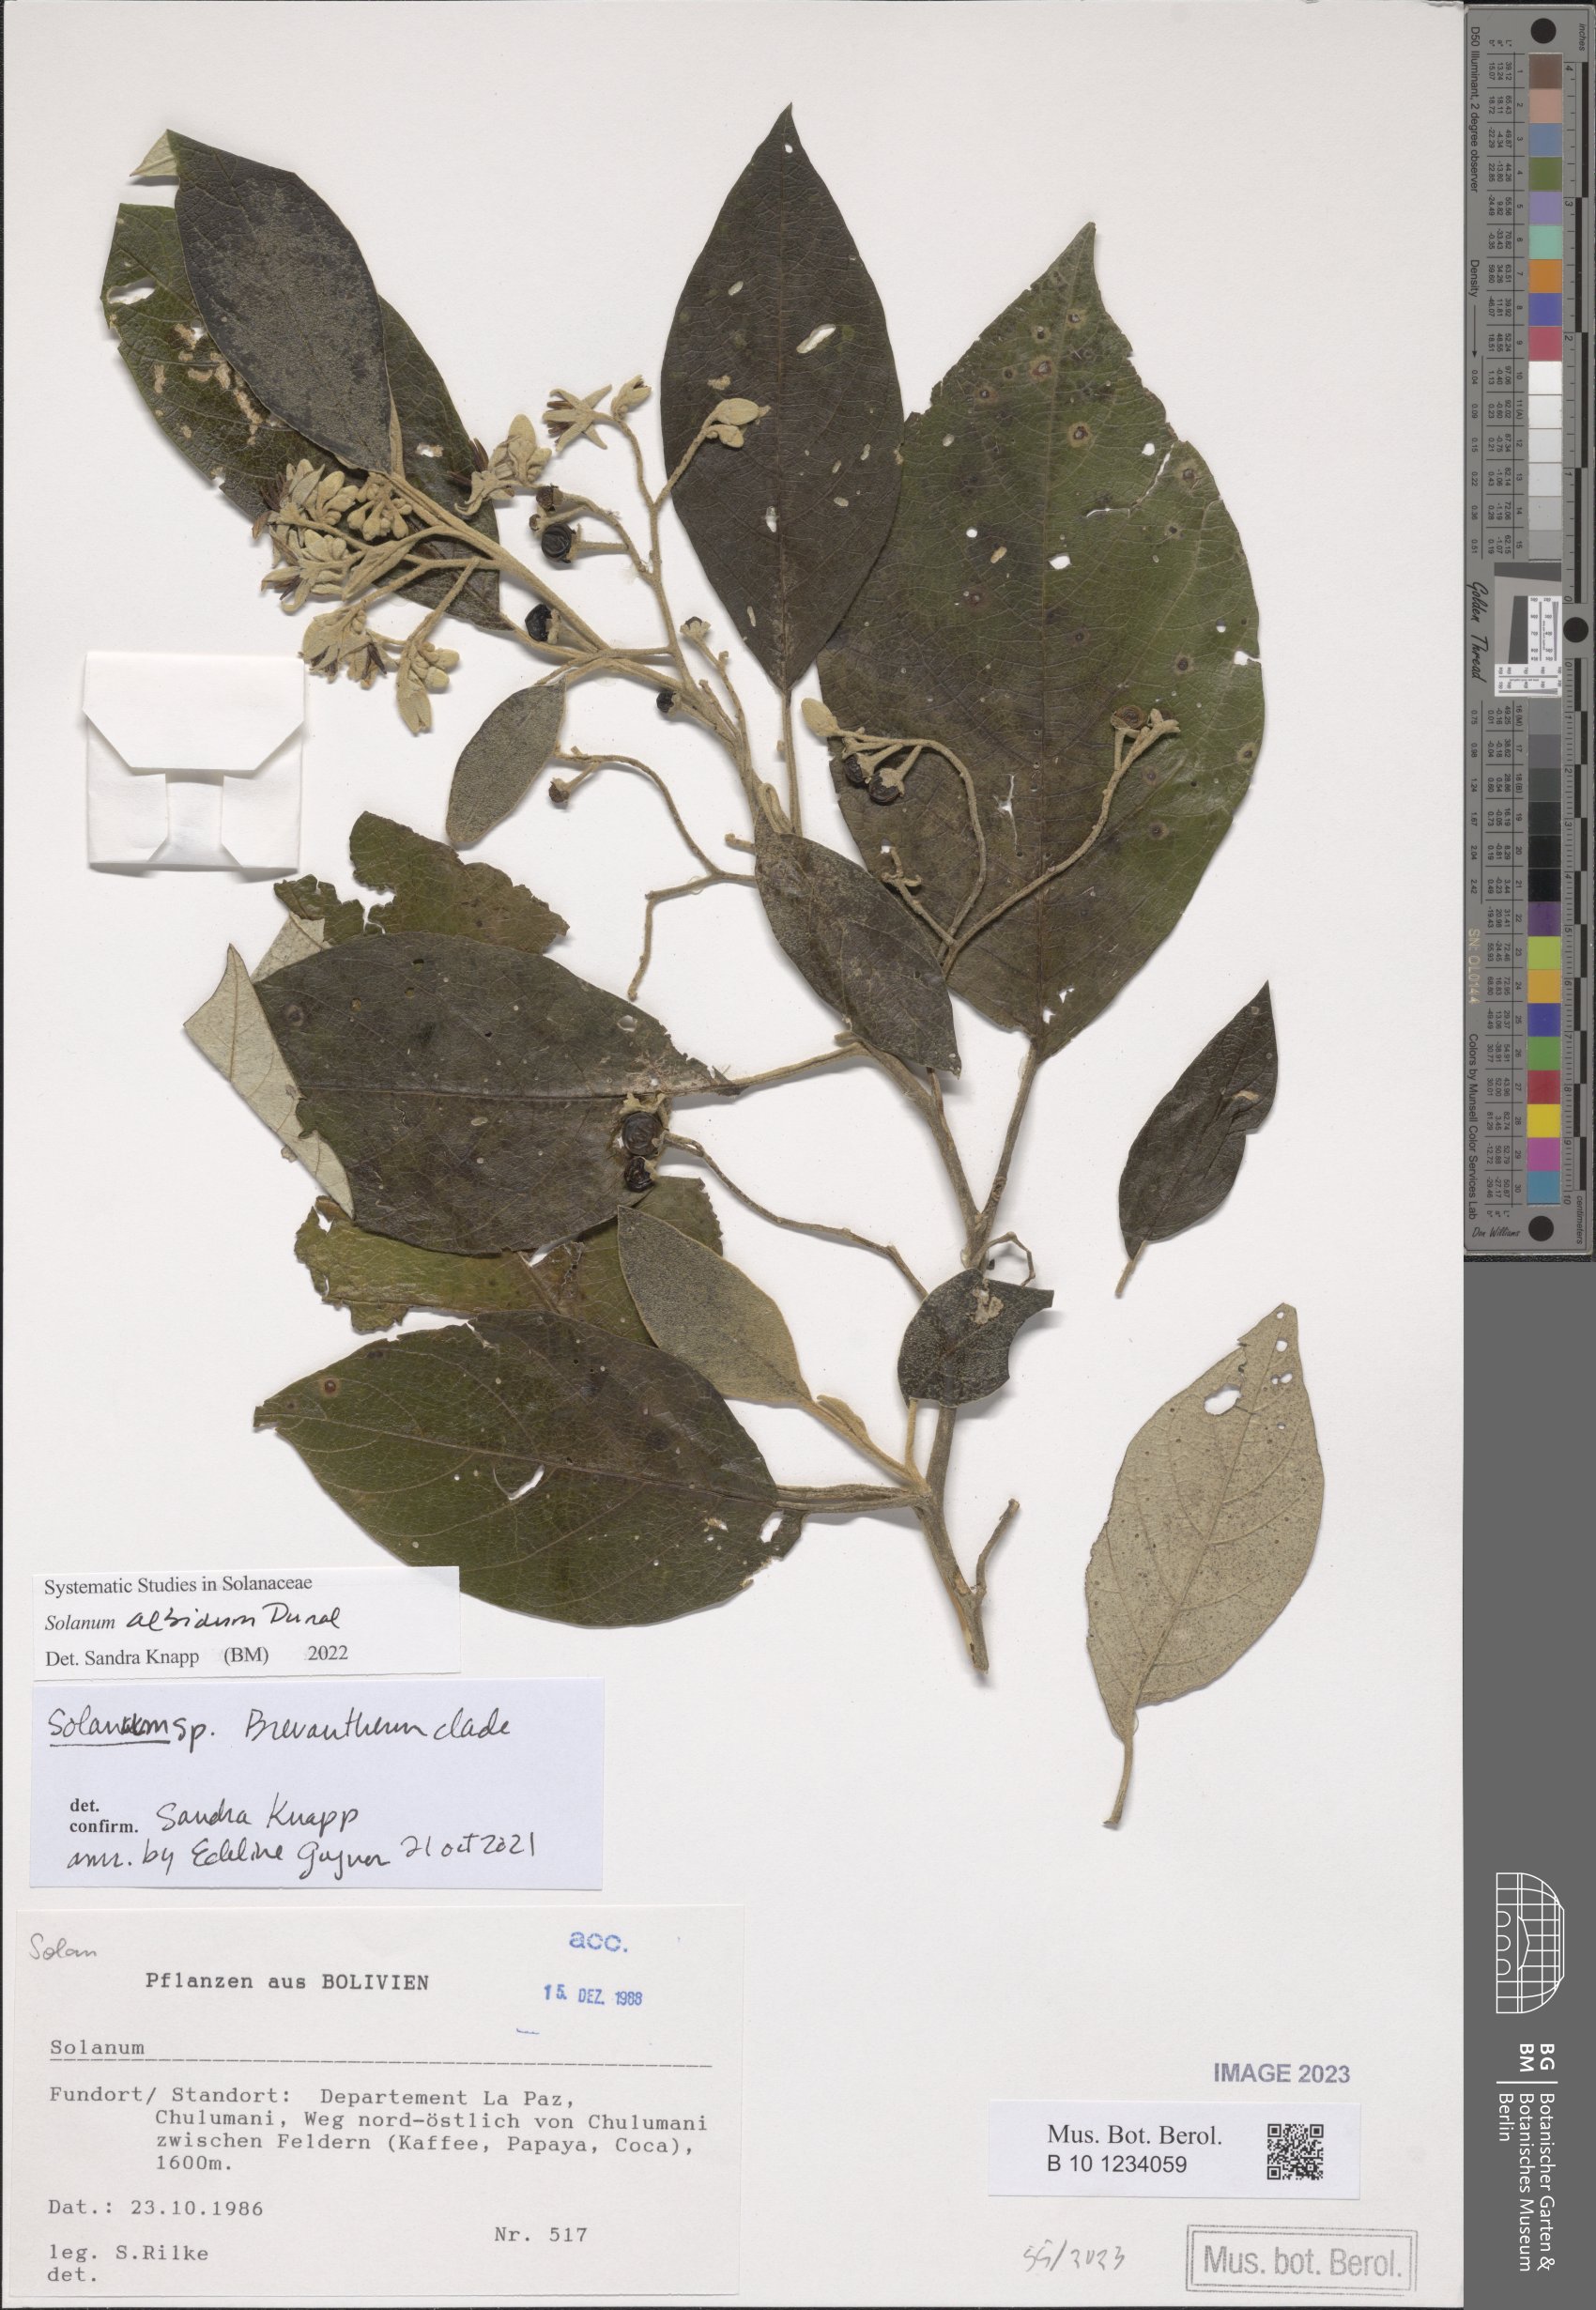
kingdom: Plantae
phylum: Tracheophyta
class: Magnoliopsida
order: Solanales
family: Solanaceae
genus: Solanum
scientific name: Solanum albidum
